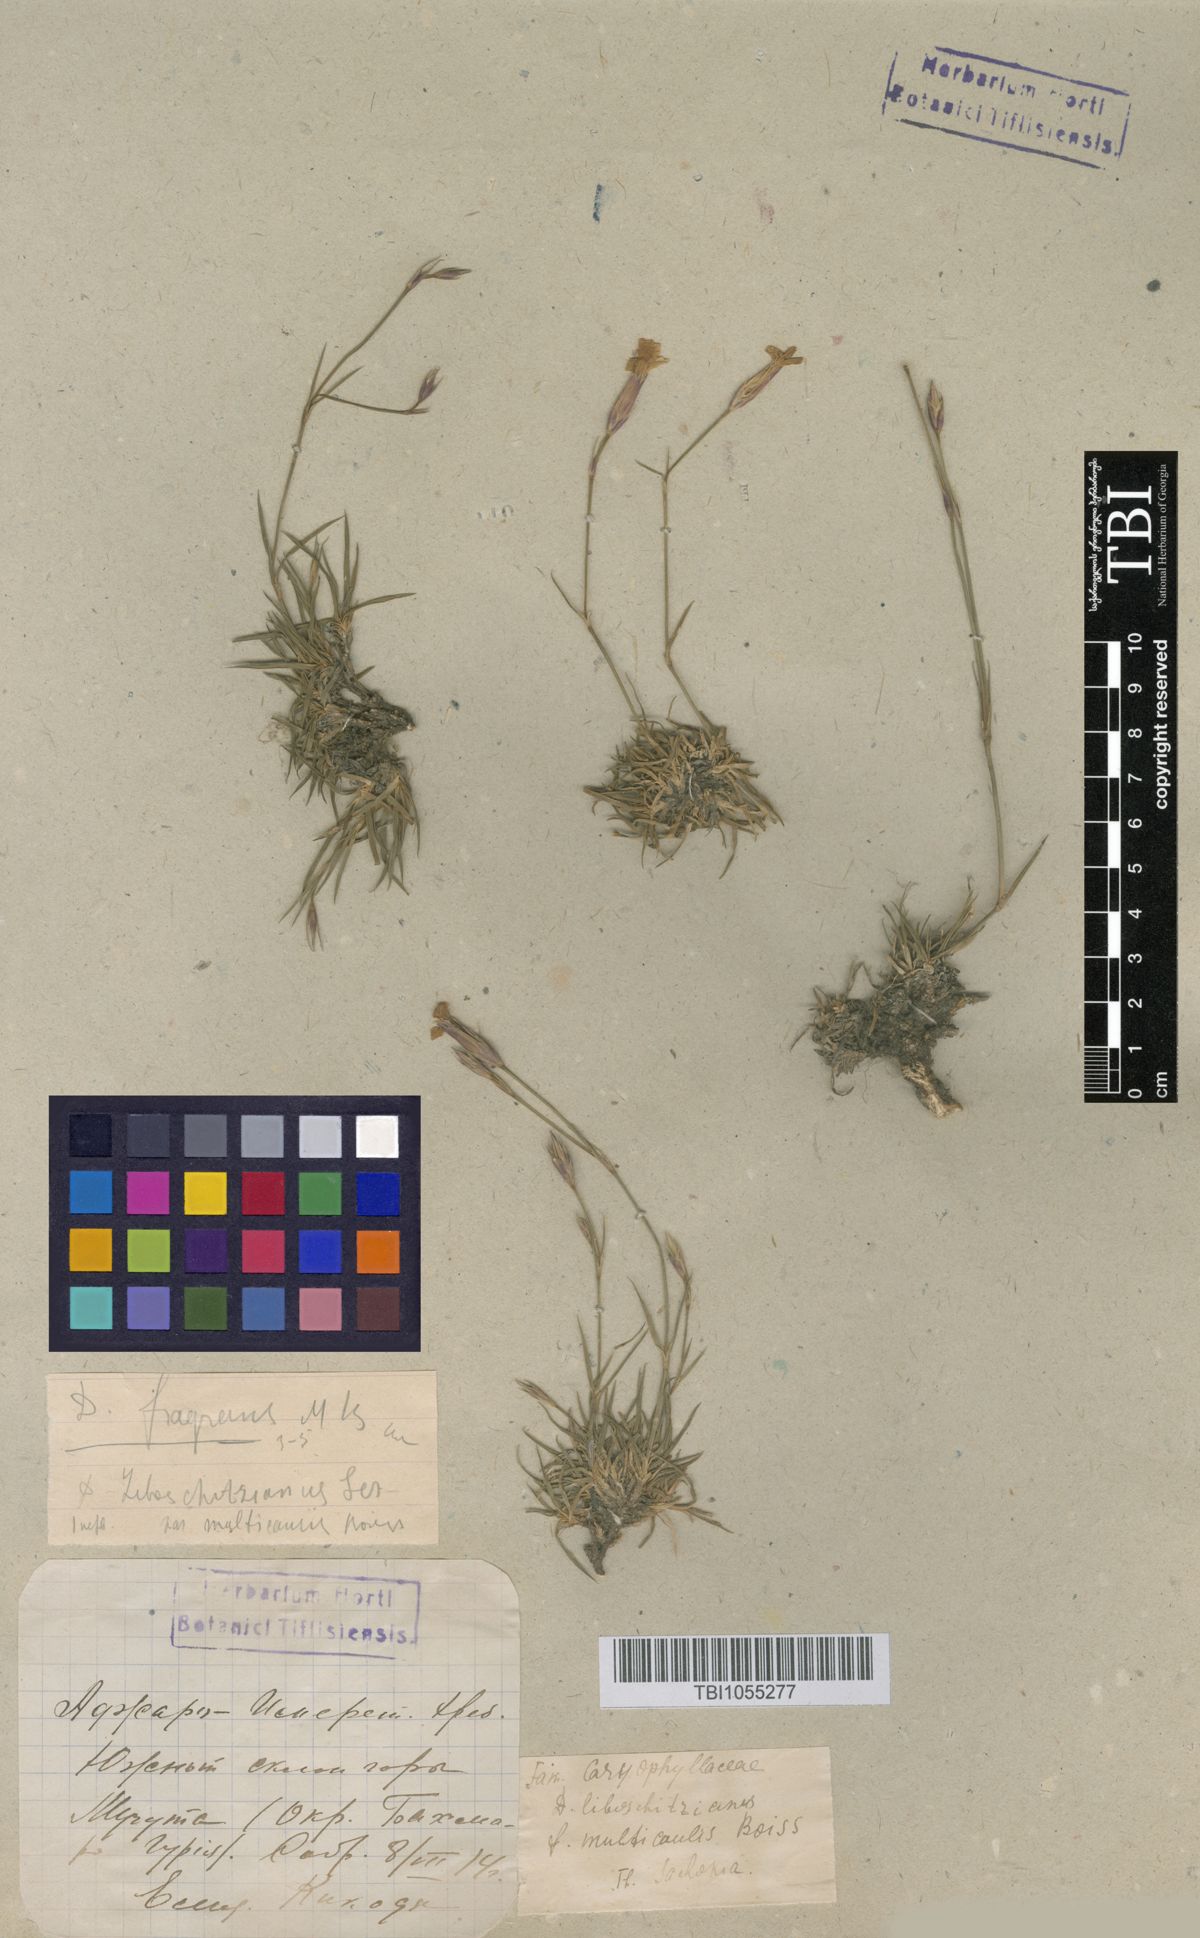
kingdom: Plantae
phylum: Tracheophyta
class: Magnoliopsida
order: Caryophyllales
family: Caryophyllaceae
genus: Dianthus
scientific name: Dianthus cretaceus
